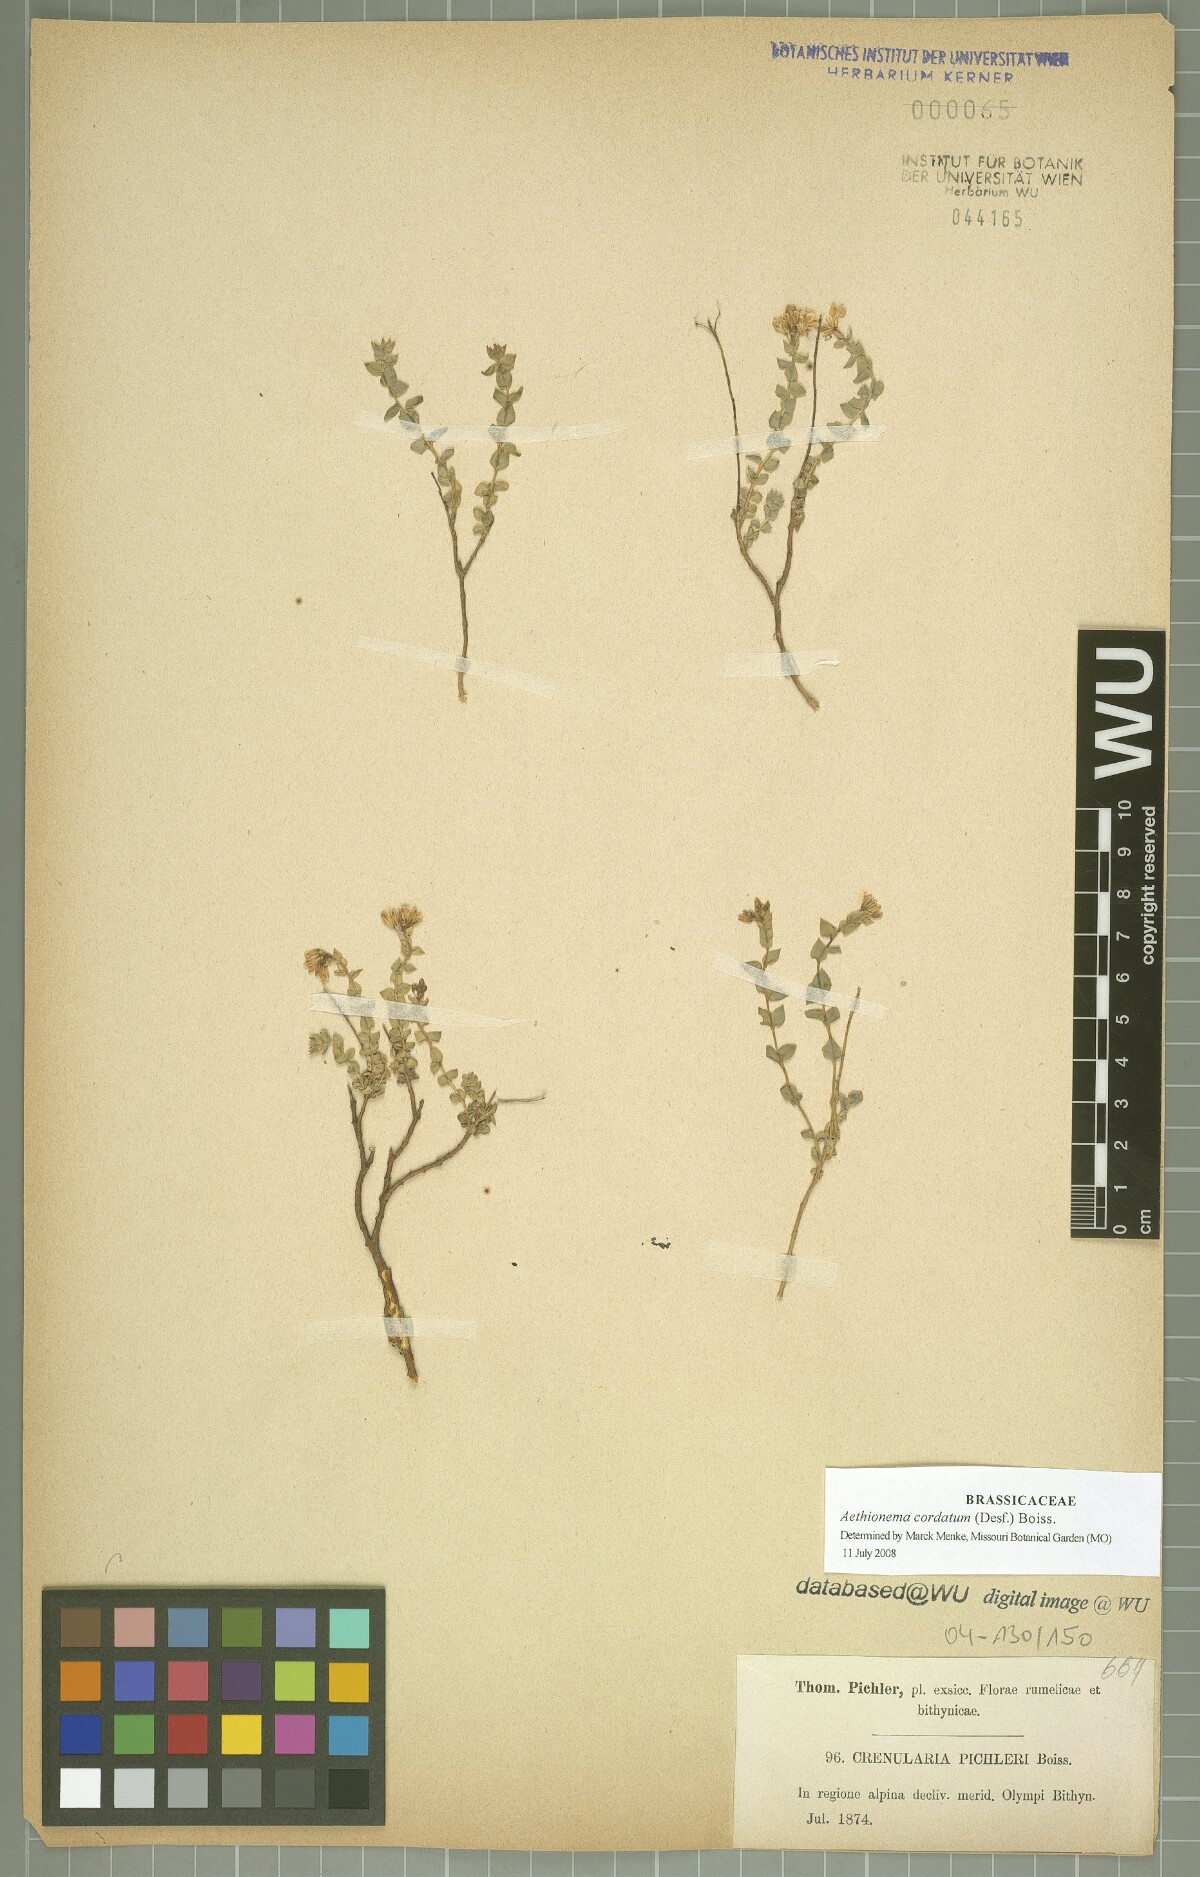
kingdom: Plantae
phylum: Tracheophyta
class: Magnoliopsida
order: Brassicales
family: Brassicaceae
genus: Aethionema
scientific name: Aethionema cordatum
